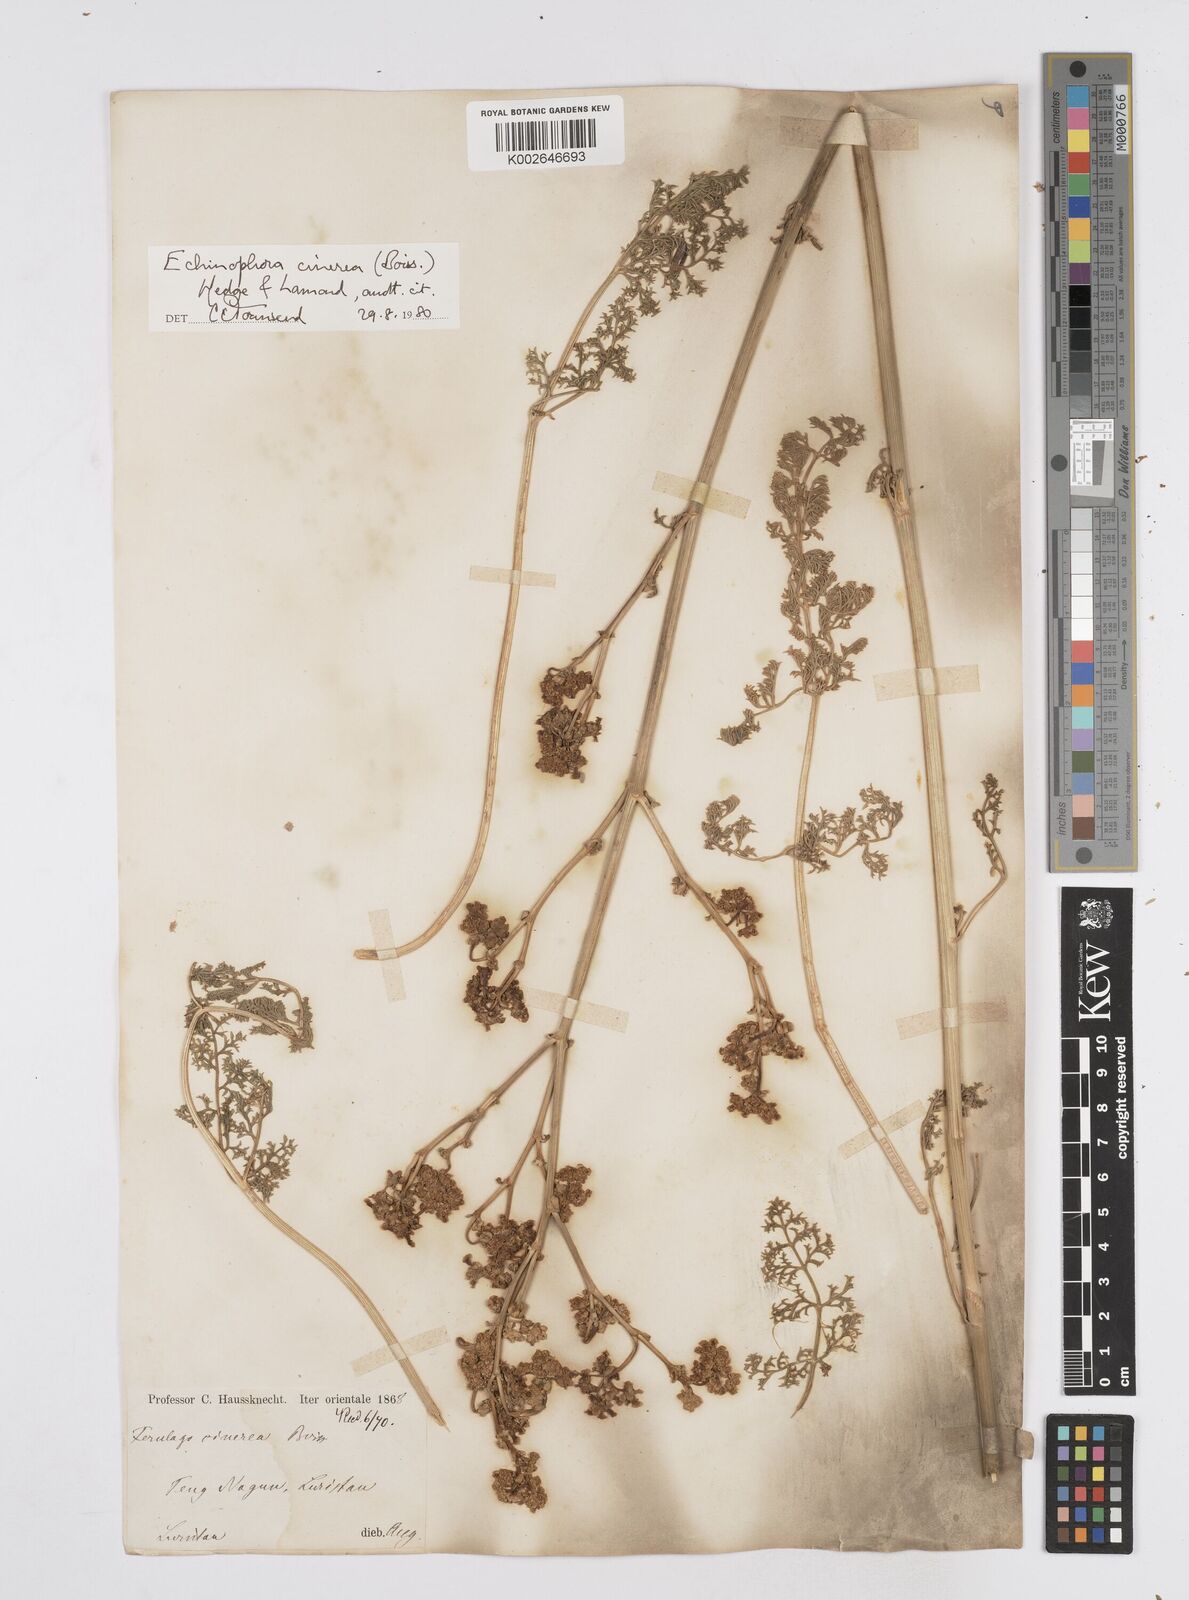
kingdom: Plantae
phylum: Tracheophyta
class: Magnoliopsida
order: Apiales
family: Apiaceae
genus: Thecocarpus
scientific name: Thecocarpus carvifolius
